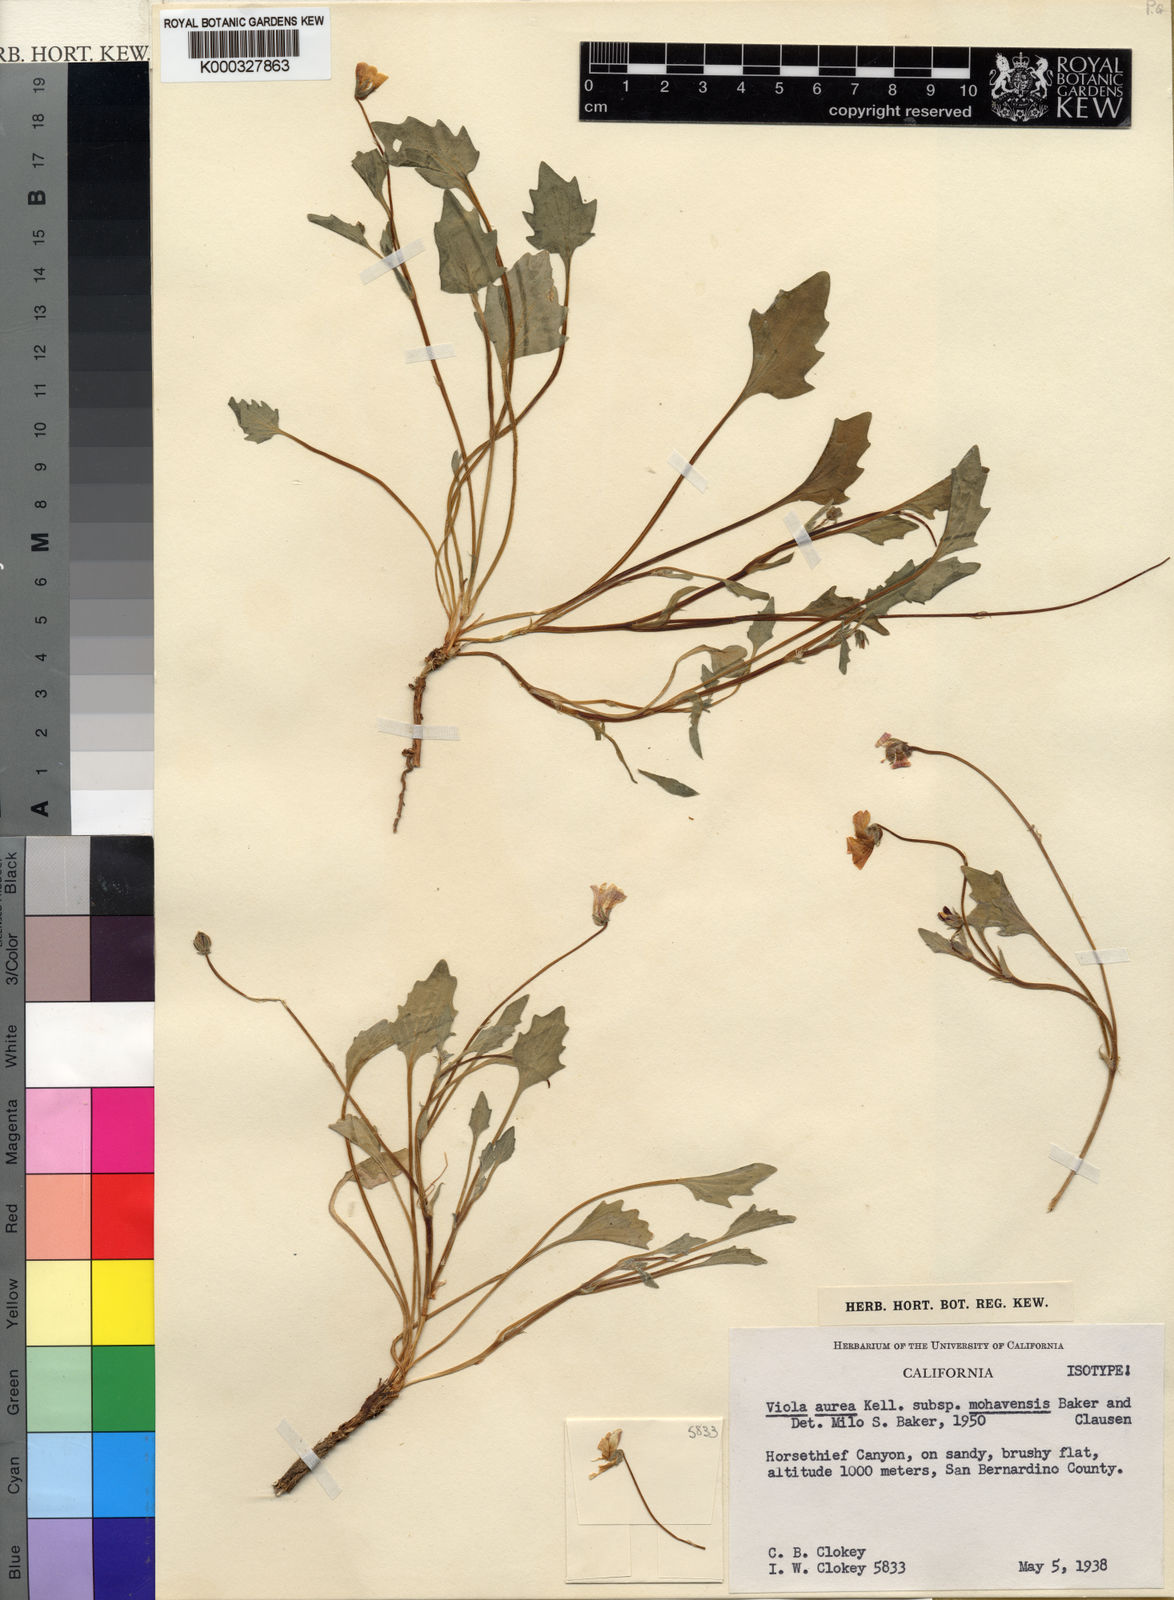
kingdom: Plantae
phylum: Tracheophyta
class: Magnoliopsida
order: Malpighiales
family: Violaceae
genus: Viola
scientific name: Viola aurea
